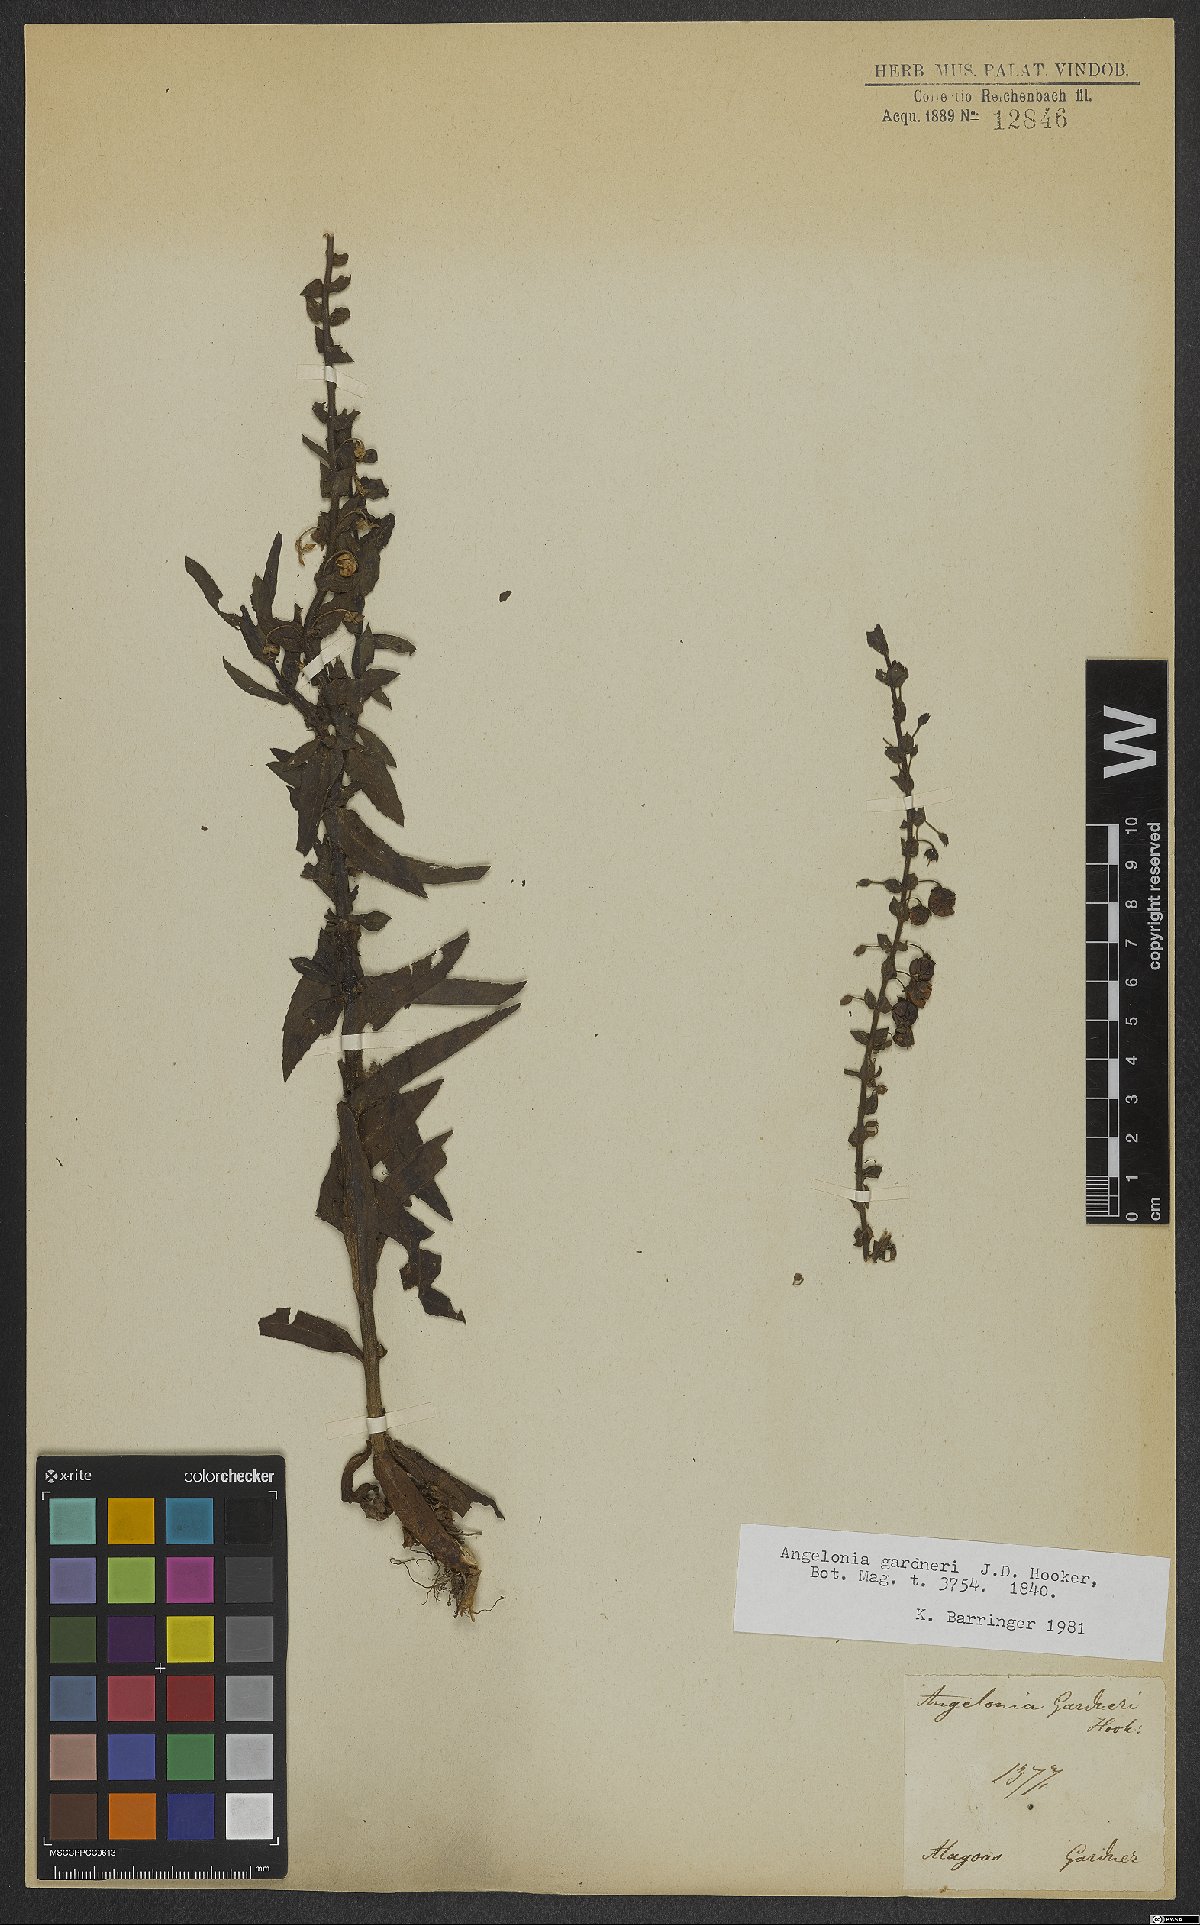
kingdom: Plantae
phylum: Tracheophyta
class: Magnoliopsida
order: Lamiales
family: Plantaginaceae
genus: Angelonia
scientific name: Angelonia gardneri
